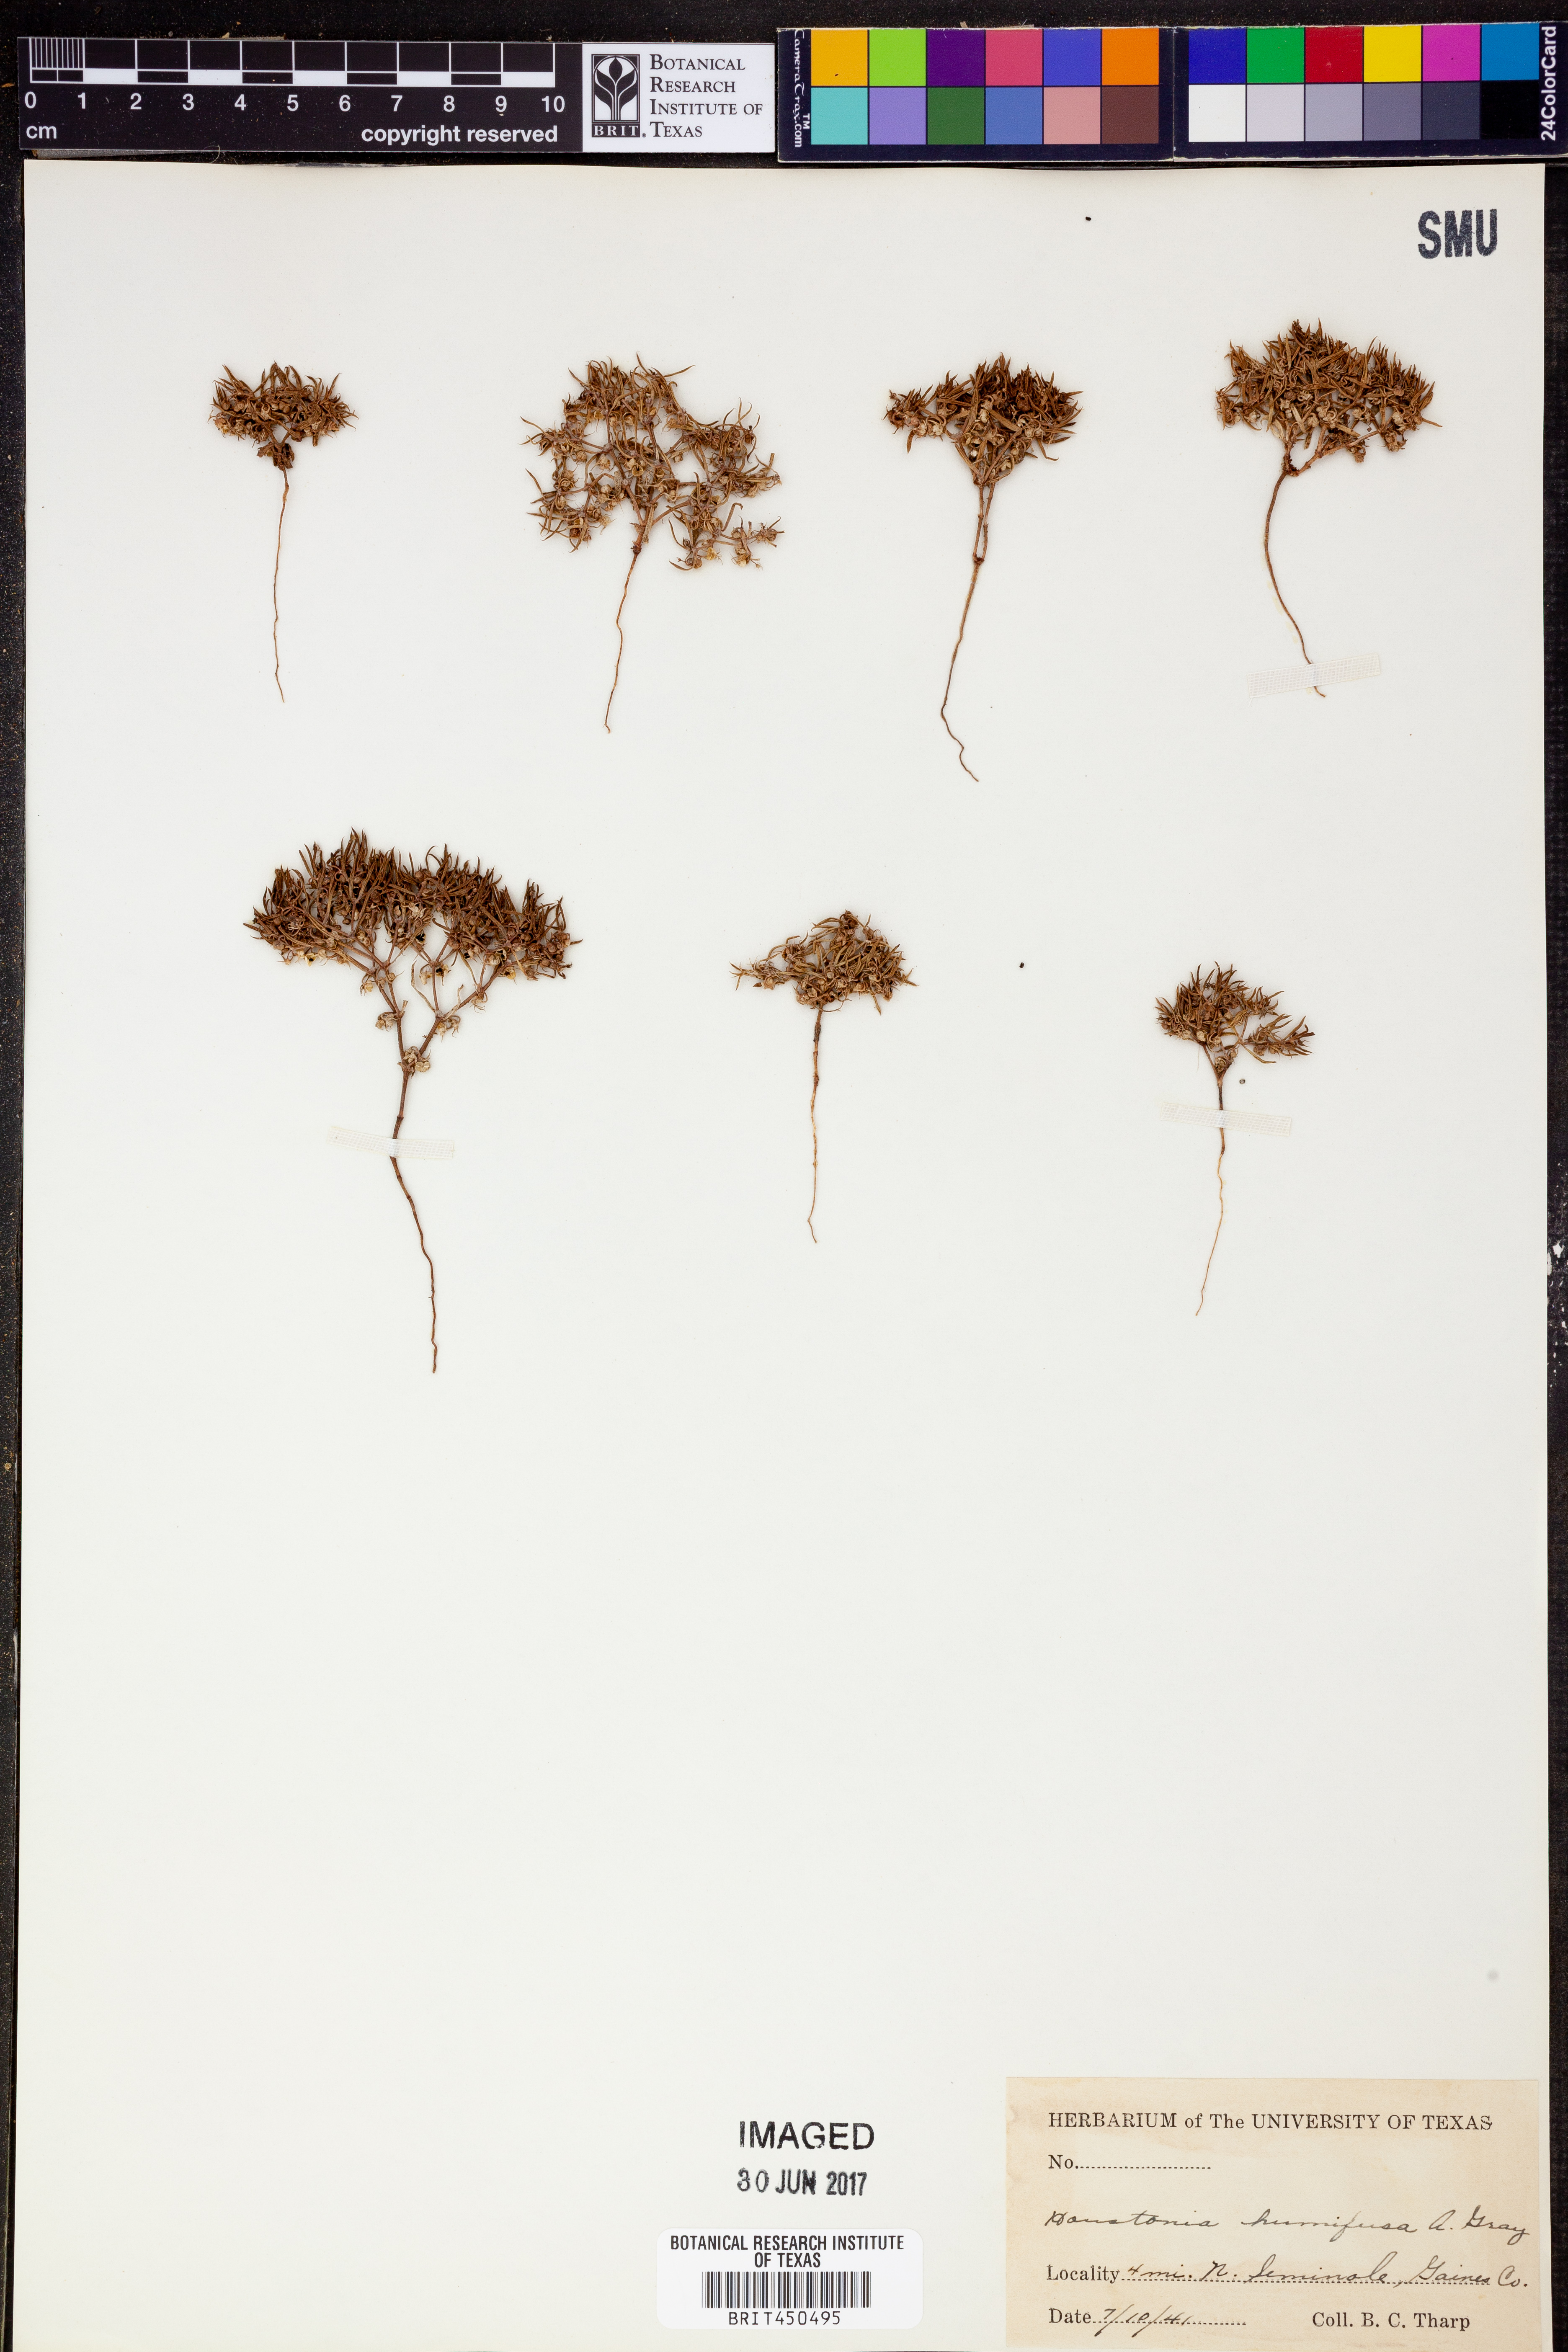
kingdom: Plantae
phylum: Tracheophyta
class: Magnoliopsida
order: Gentianales
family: Rubiaceae
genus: Houstonia
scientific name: Houstonia humifusa
